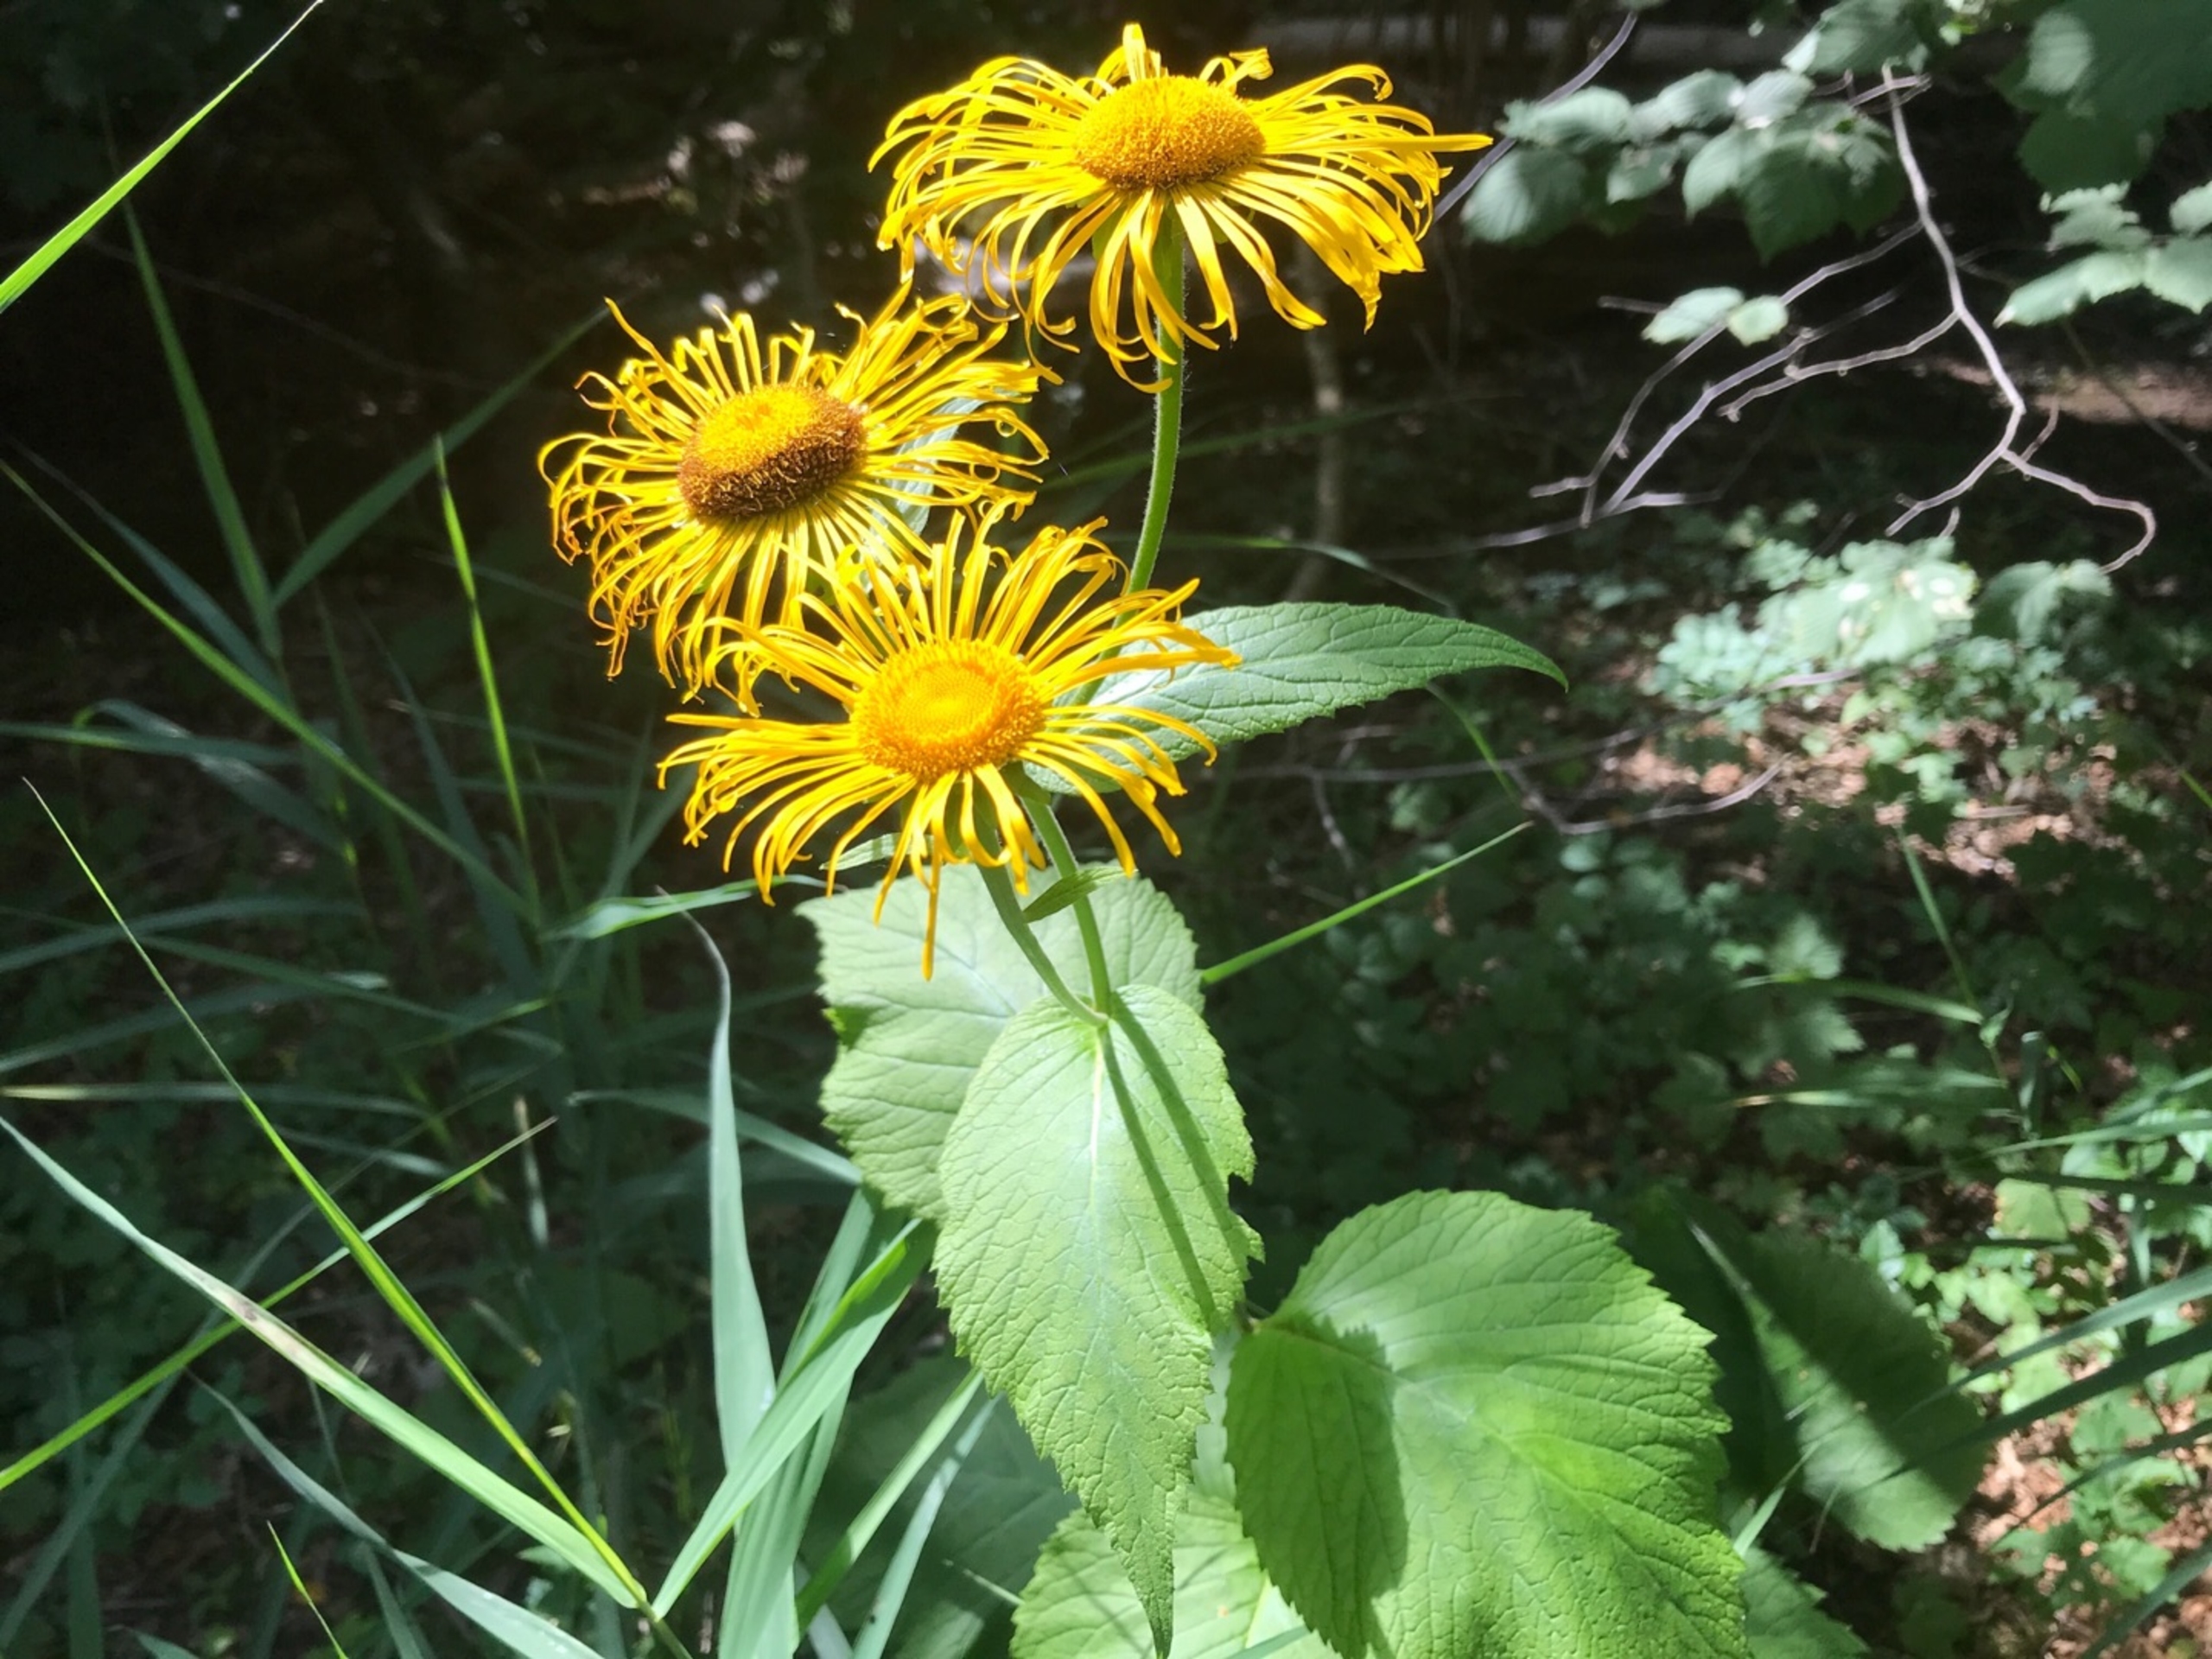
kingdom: Plantae
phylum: Tracheophyta
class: Magnoliopsida
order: Asterales
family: Asteraceae
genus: Telekia
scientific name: Telekia speciosa
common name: Tusindstråle
